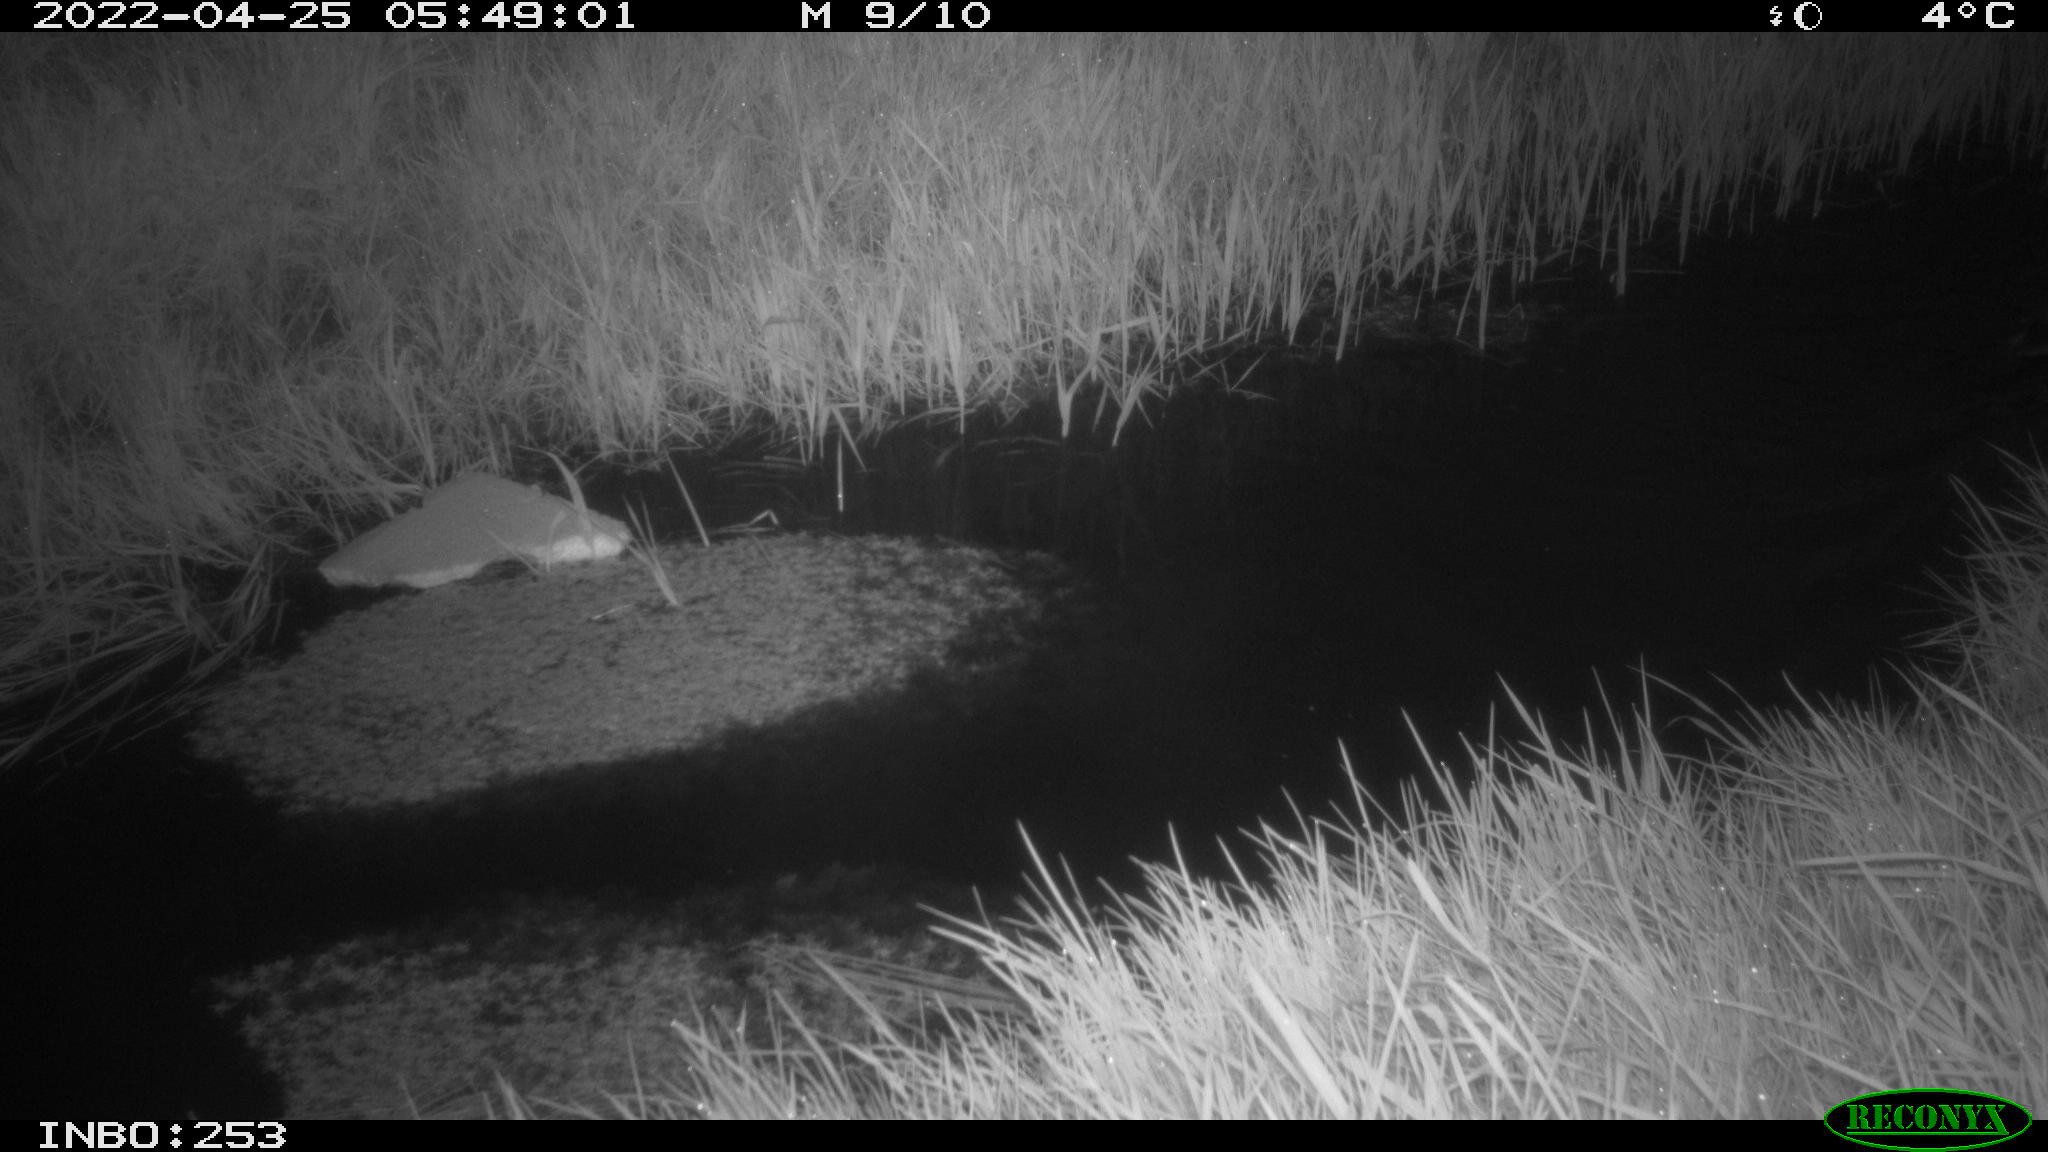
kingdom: Animalia
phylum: Chordata
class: Aves
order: Anseriformes
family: Anatidae
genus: Anas
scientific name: Anas platyrhynchos
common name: Mallard
